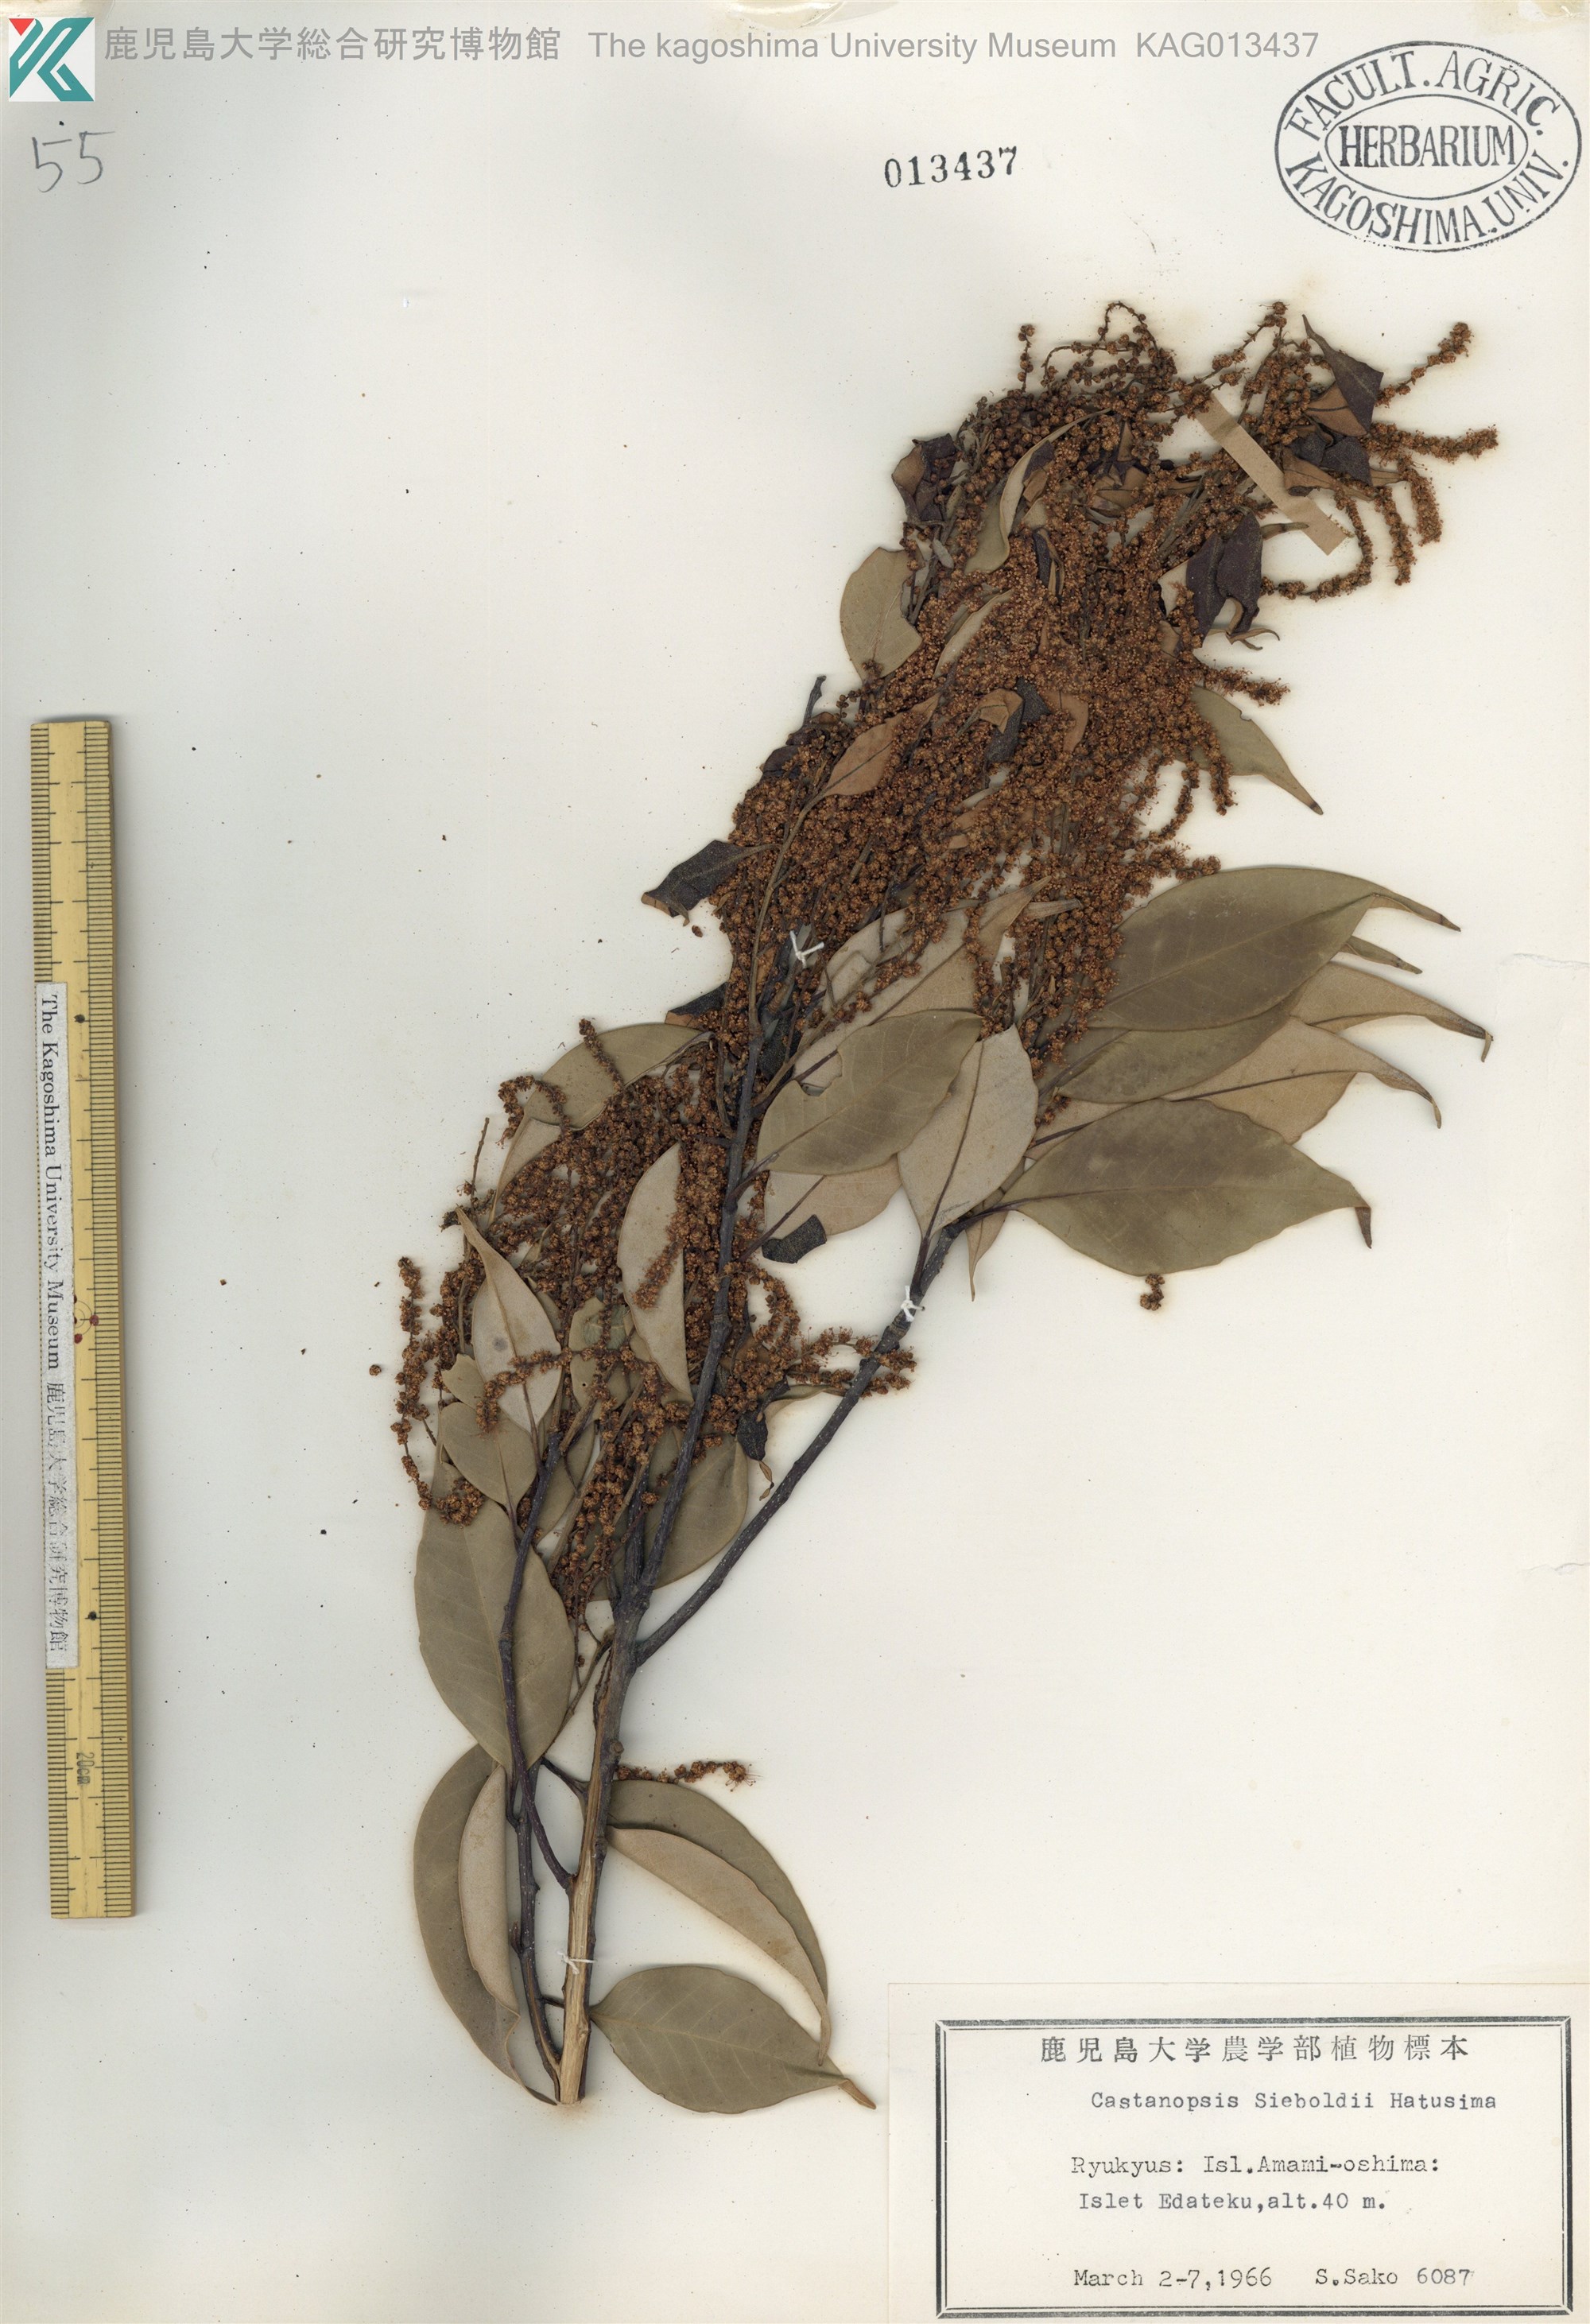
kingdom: Plantae
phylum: Tracheophyta
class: Magnoliopsida
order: Fagales
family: Fagaceae
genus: Castanopsis
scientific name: Castanopsis sieboldii
